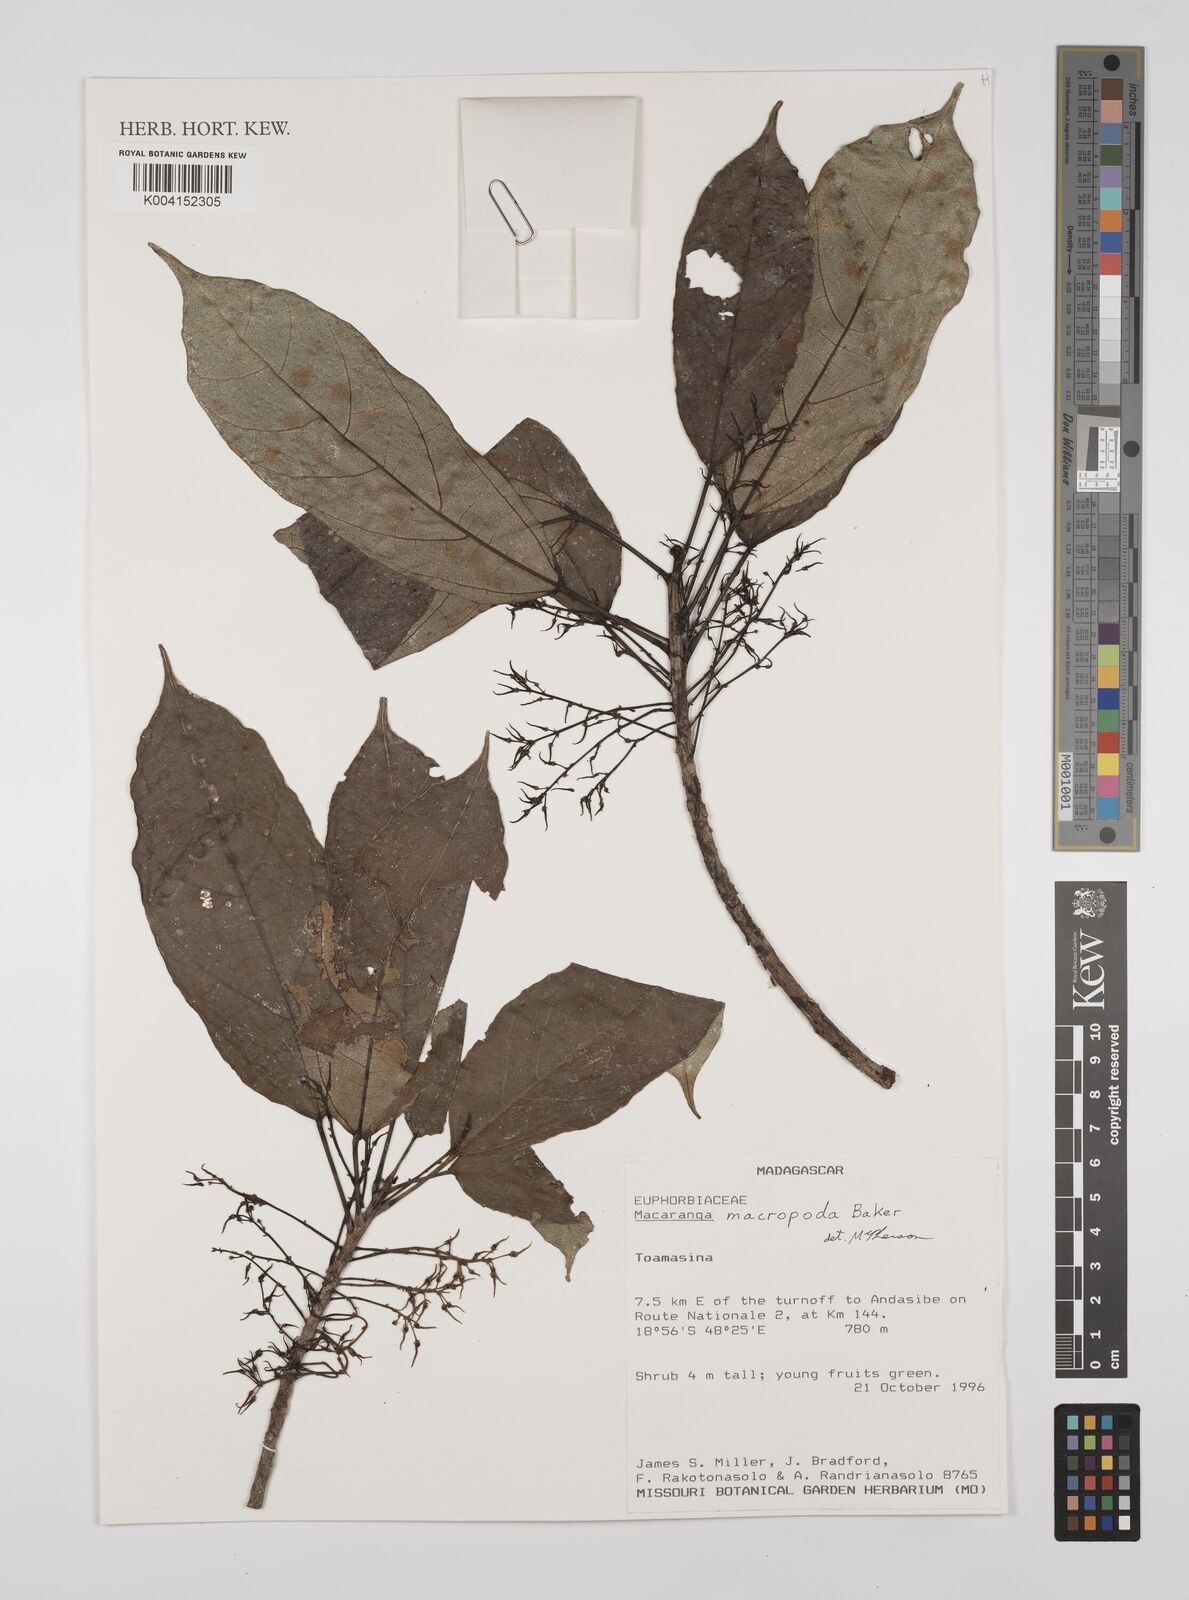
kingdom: Plantae
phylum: Tracheophyta
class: Magnoliopsida
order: Malpighiales
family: Euphorbiaceae
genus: Macaranga
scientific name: Macaranga macropoda
